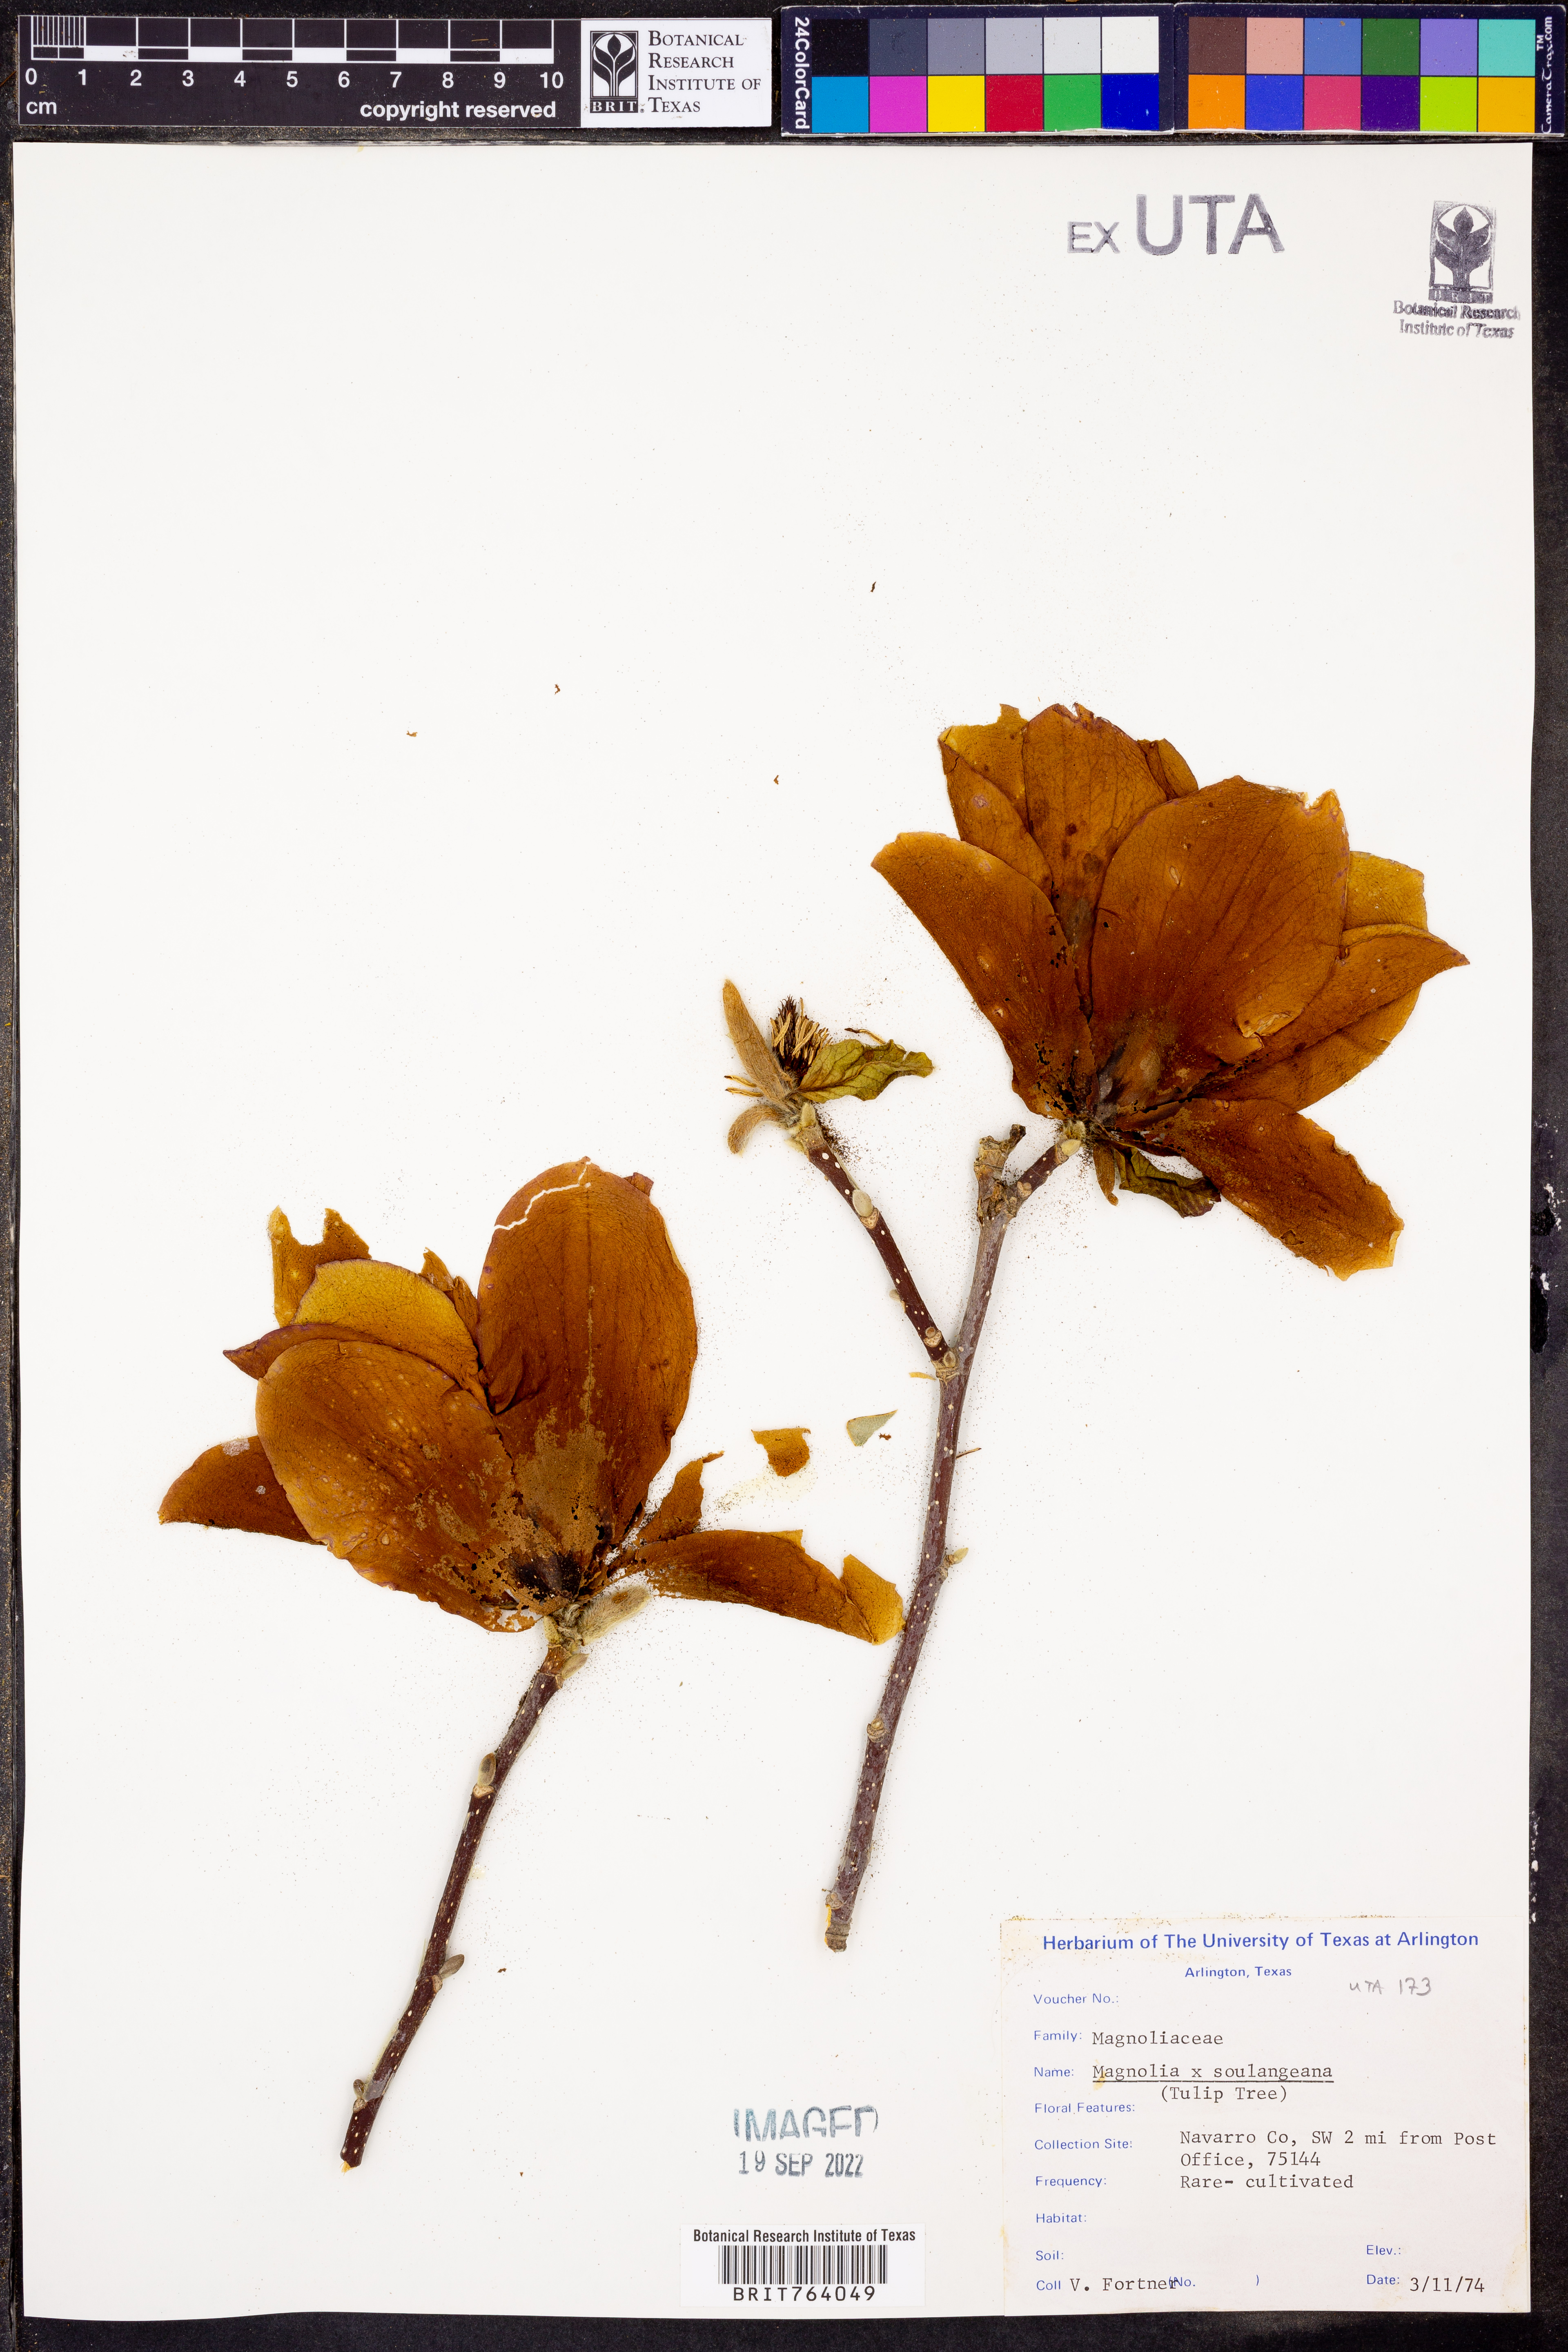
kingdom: Plantae
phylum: Tracheophyta
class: Magnoliopsida
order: Magnoliales
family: Magnoliaceae
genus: Magnolia
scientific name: Magnolia soulangeana
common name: Chinese magnolia
